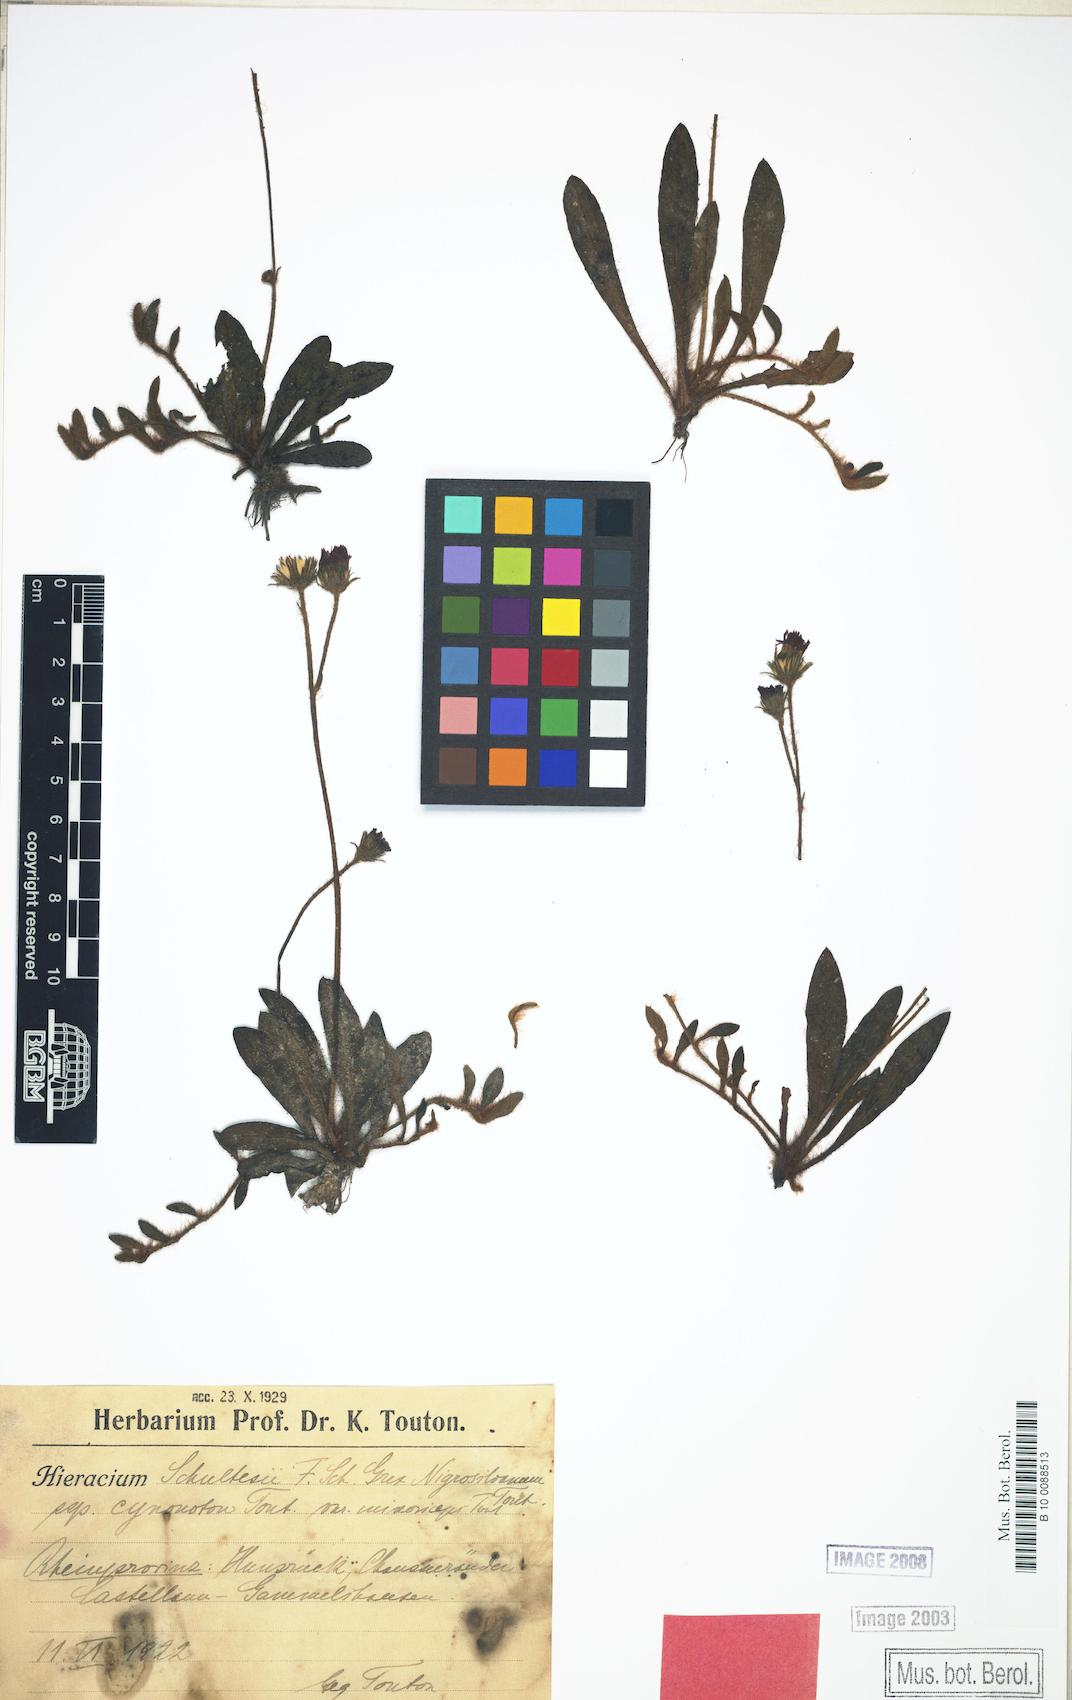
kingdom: Plantae
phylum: Tracheophyta
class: Magnoliopsida
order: Asterales
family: Asteraceae
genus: Pilosella
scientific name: Pilosella schultesii
